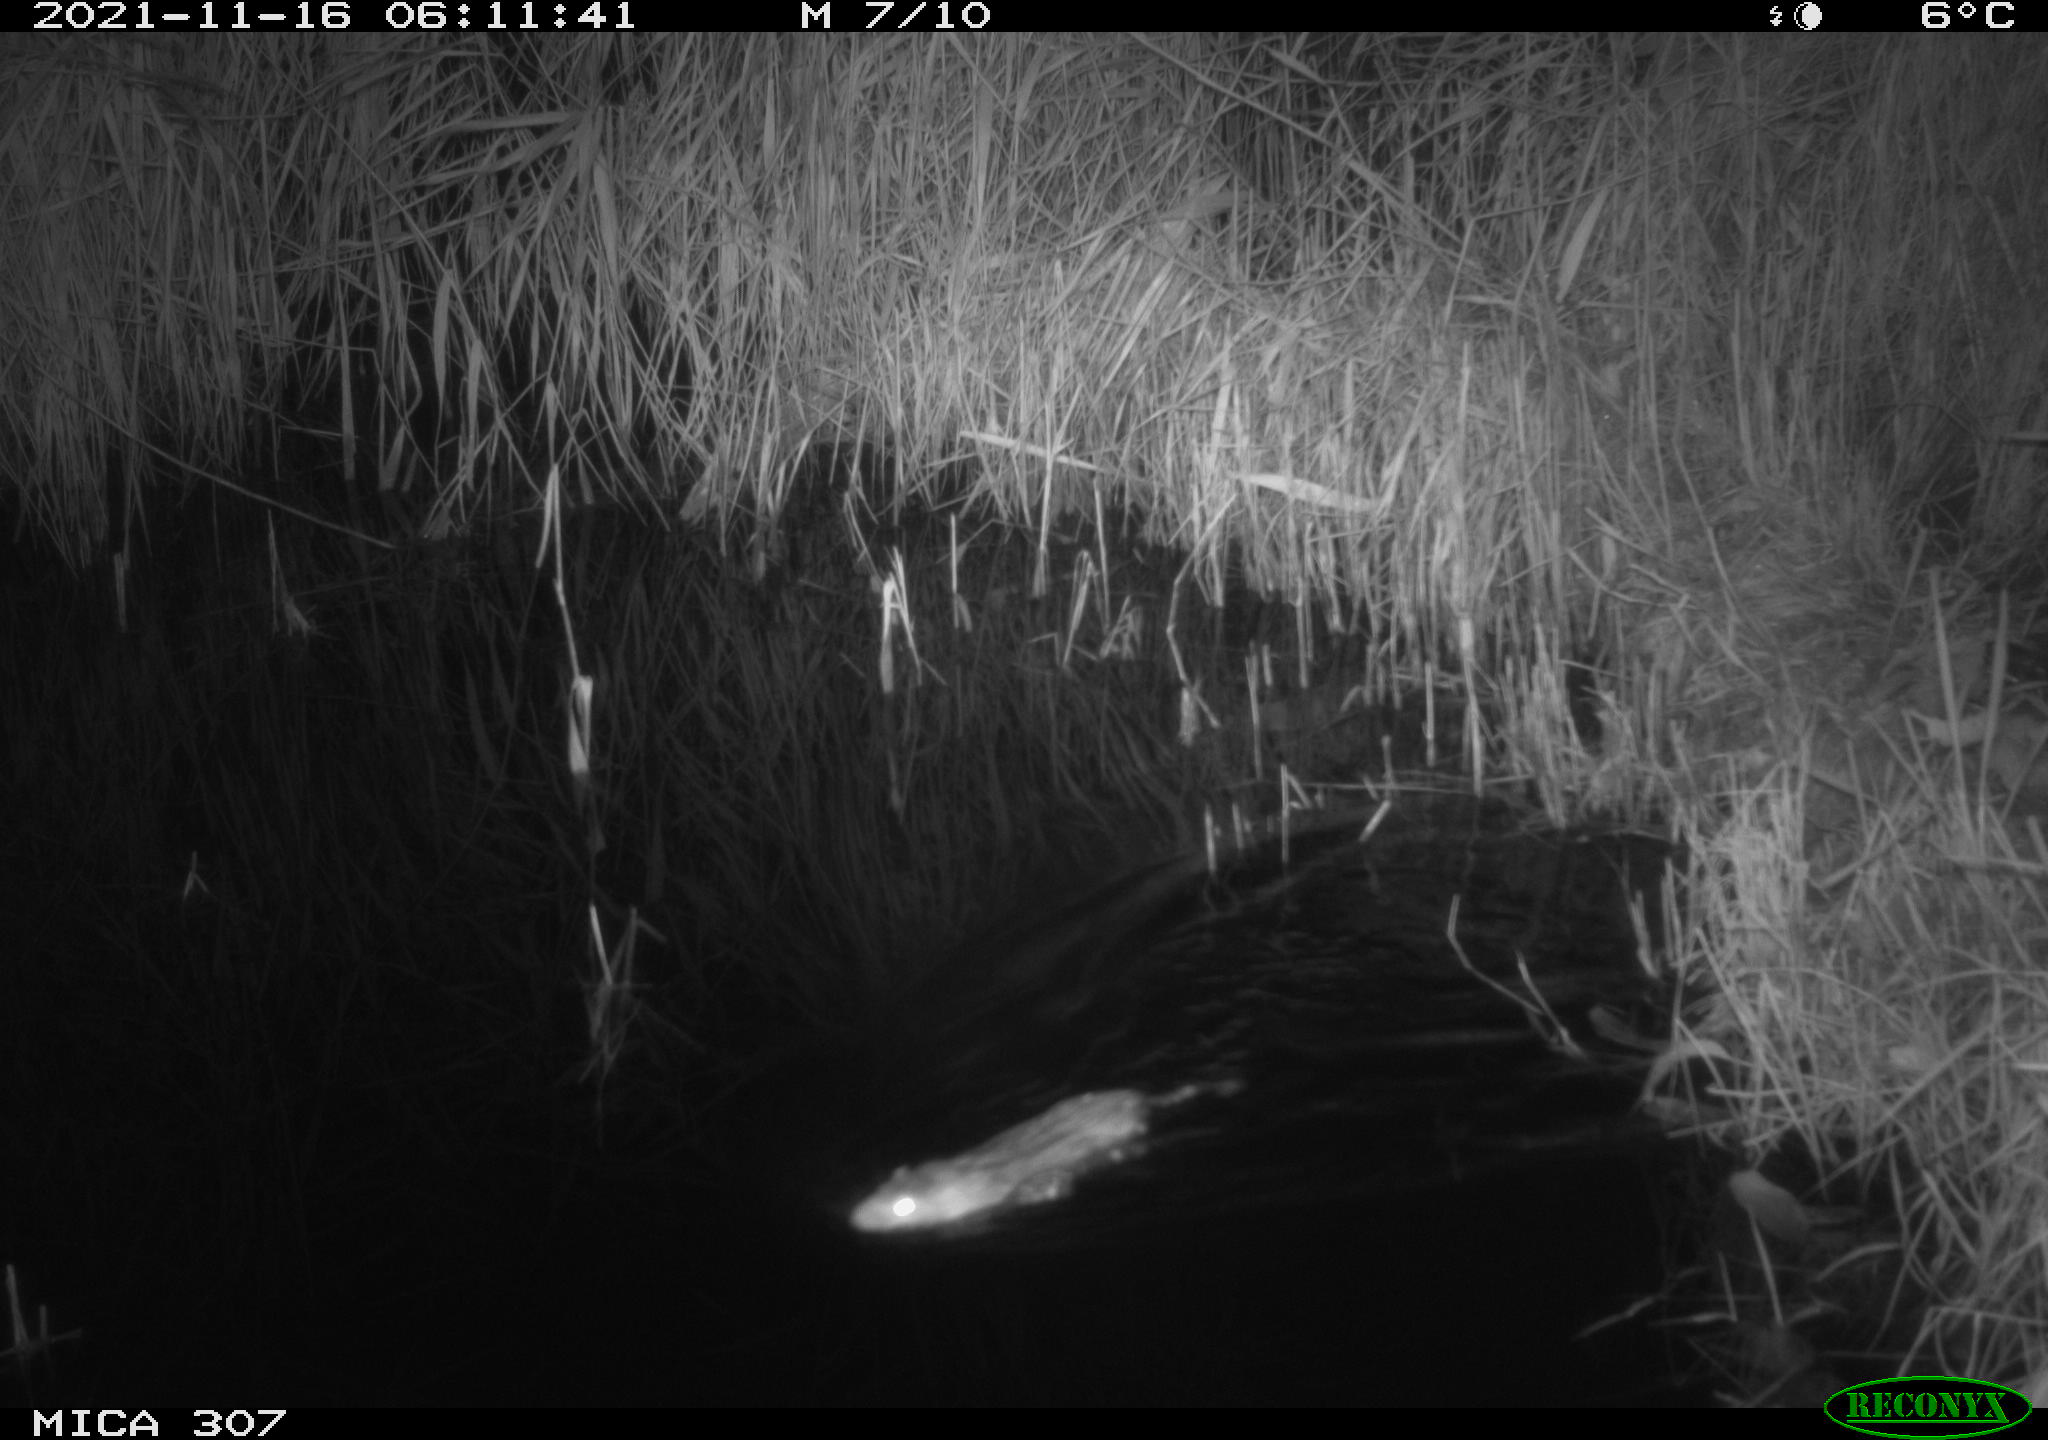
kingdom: Animalia
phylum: Chordata
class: Mammalia
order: Rodentia
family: Muridae
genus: Rattus
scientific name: Rattus norvegicus
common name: Brown rat
